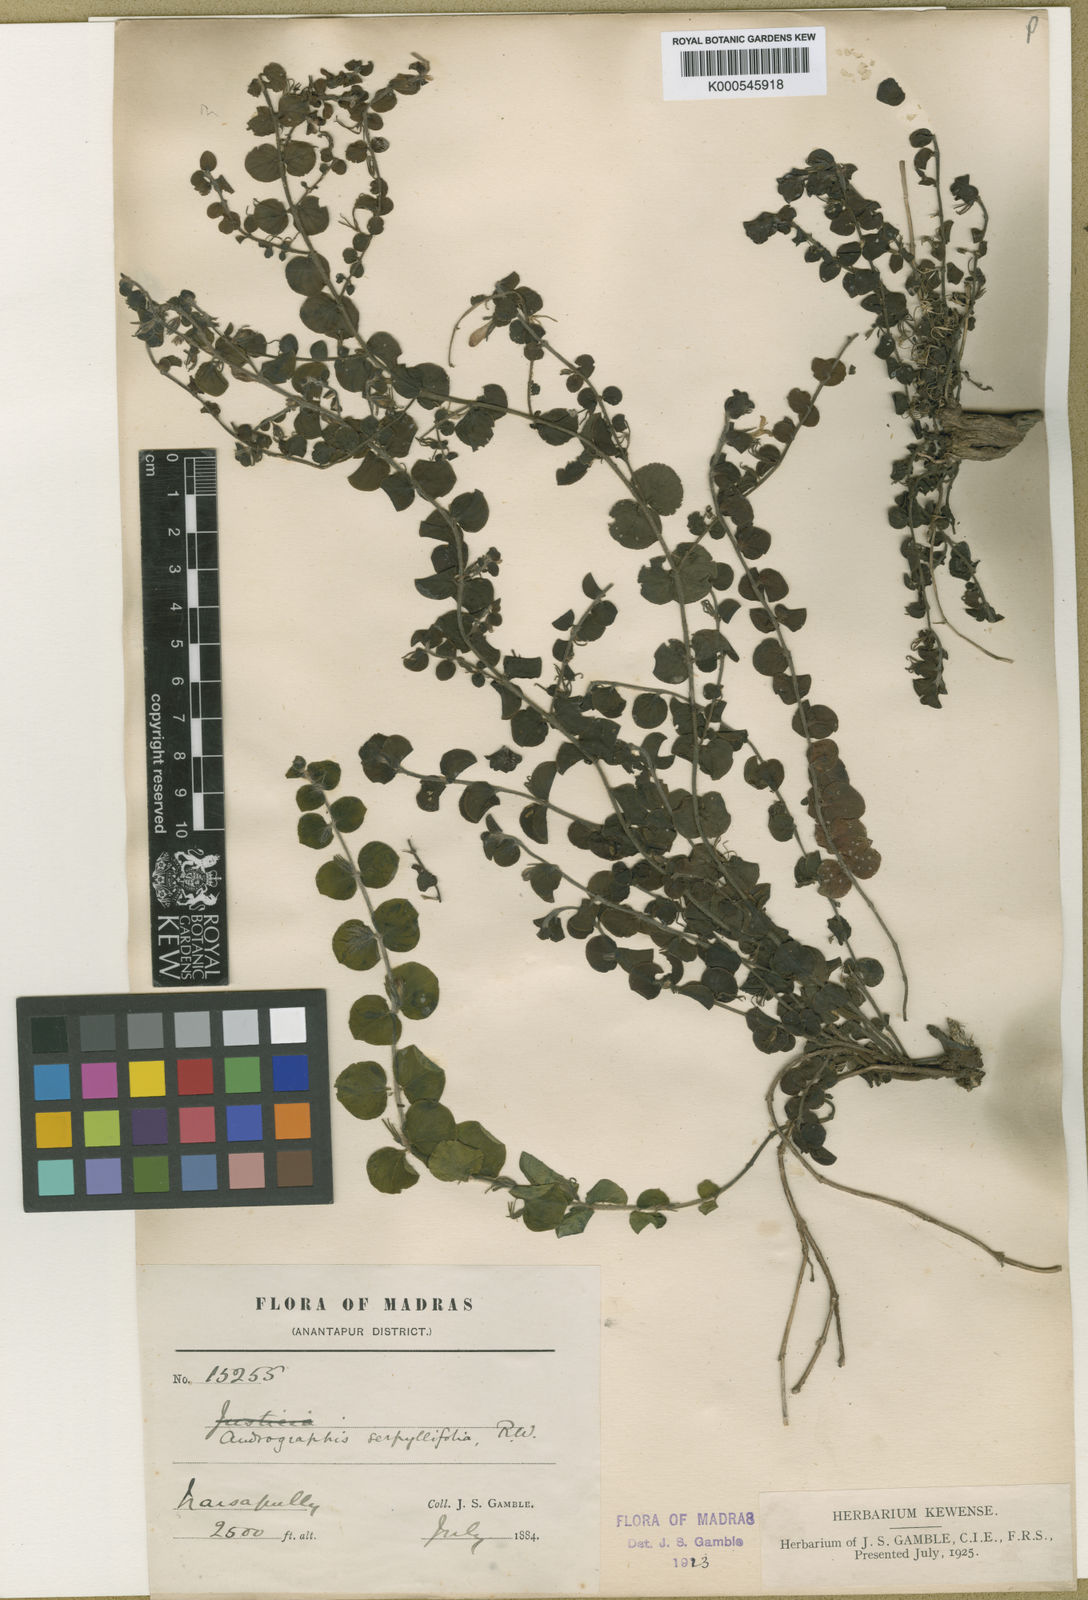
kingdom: Plantae
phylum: Tracheophyta
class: Magnoliopsida
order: Lamiales
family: Acanthaceae
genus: Andrographis
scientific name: Andrographis serpyllifolia
